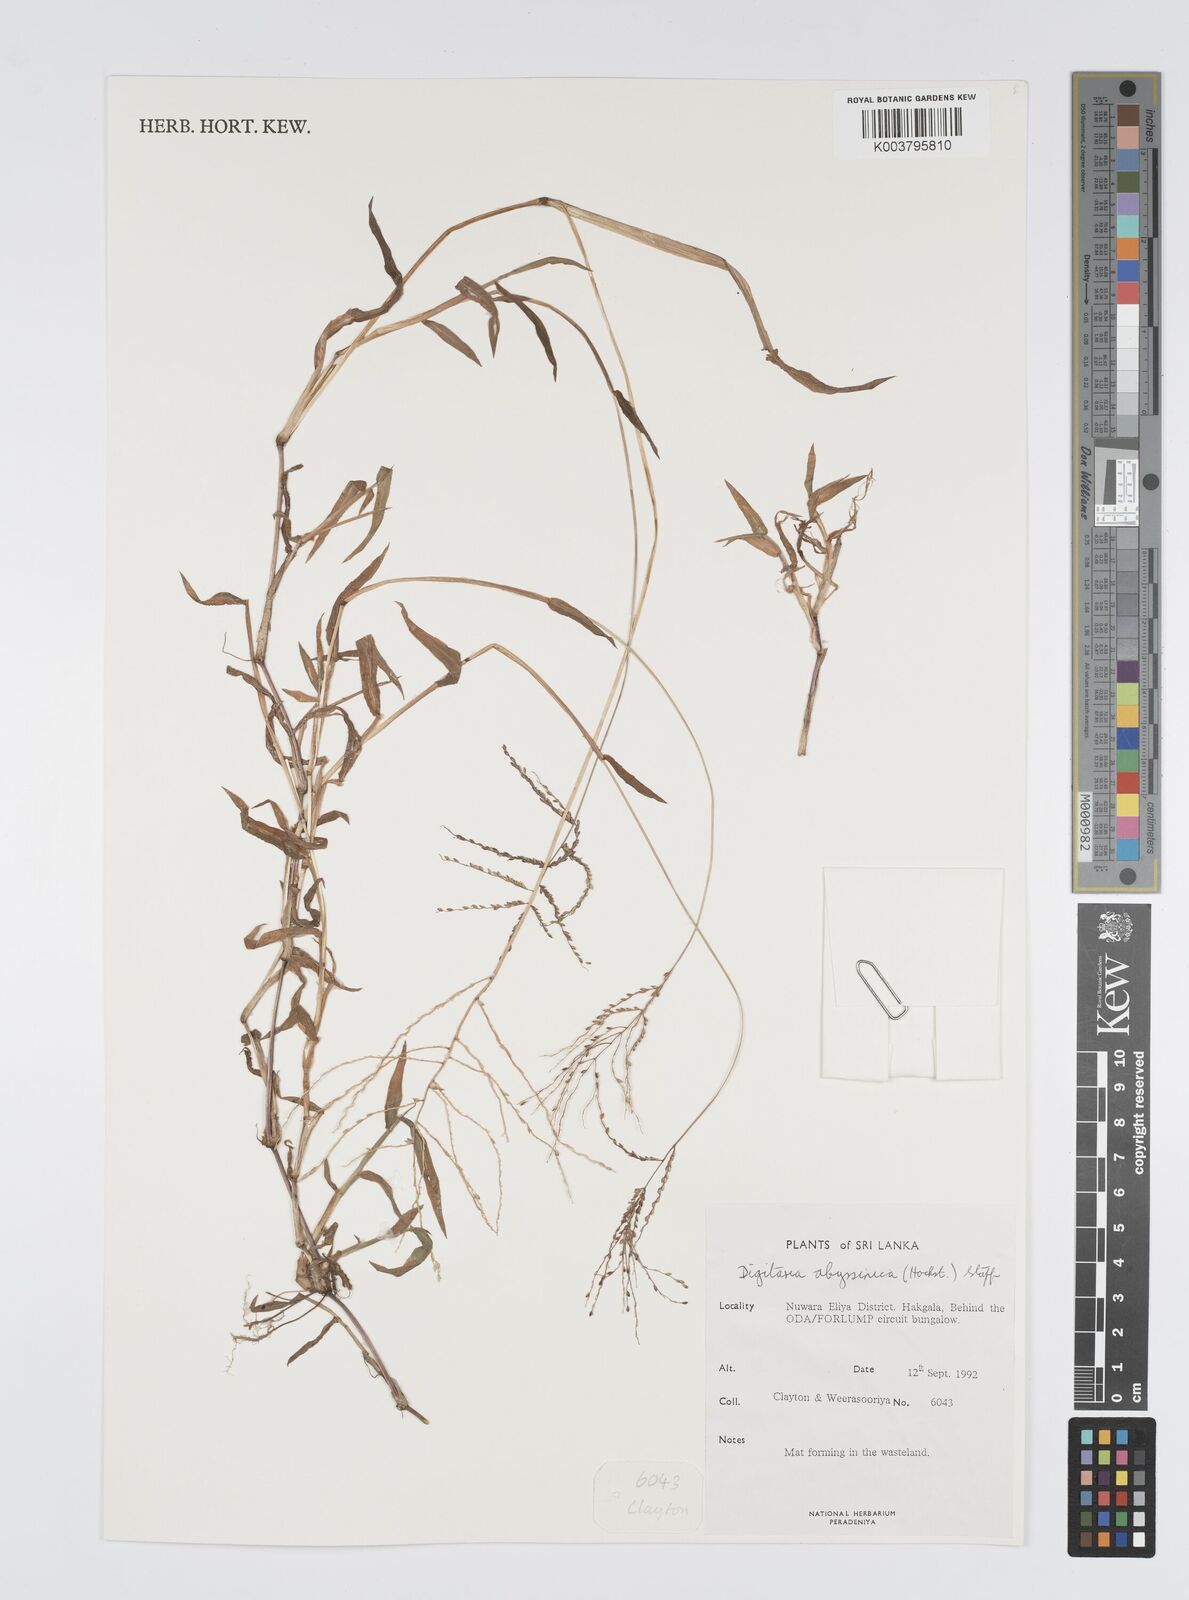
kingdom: Plantae
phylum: Tracheophyta
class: Liliopsida
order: Poales
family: Poaceae
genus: Digitaria
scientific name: Digitaria abyssinica
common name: African couchgrass
